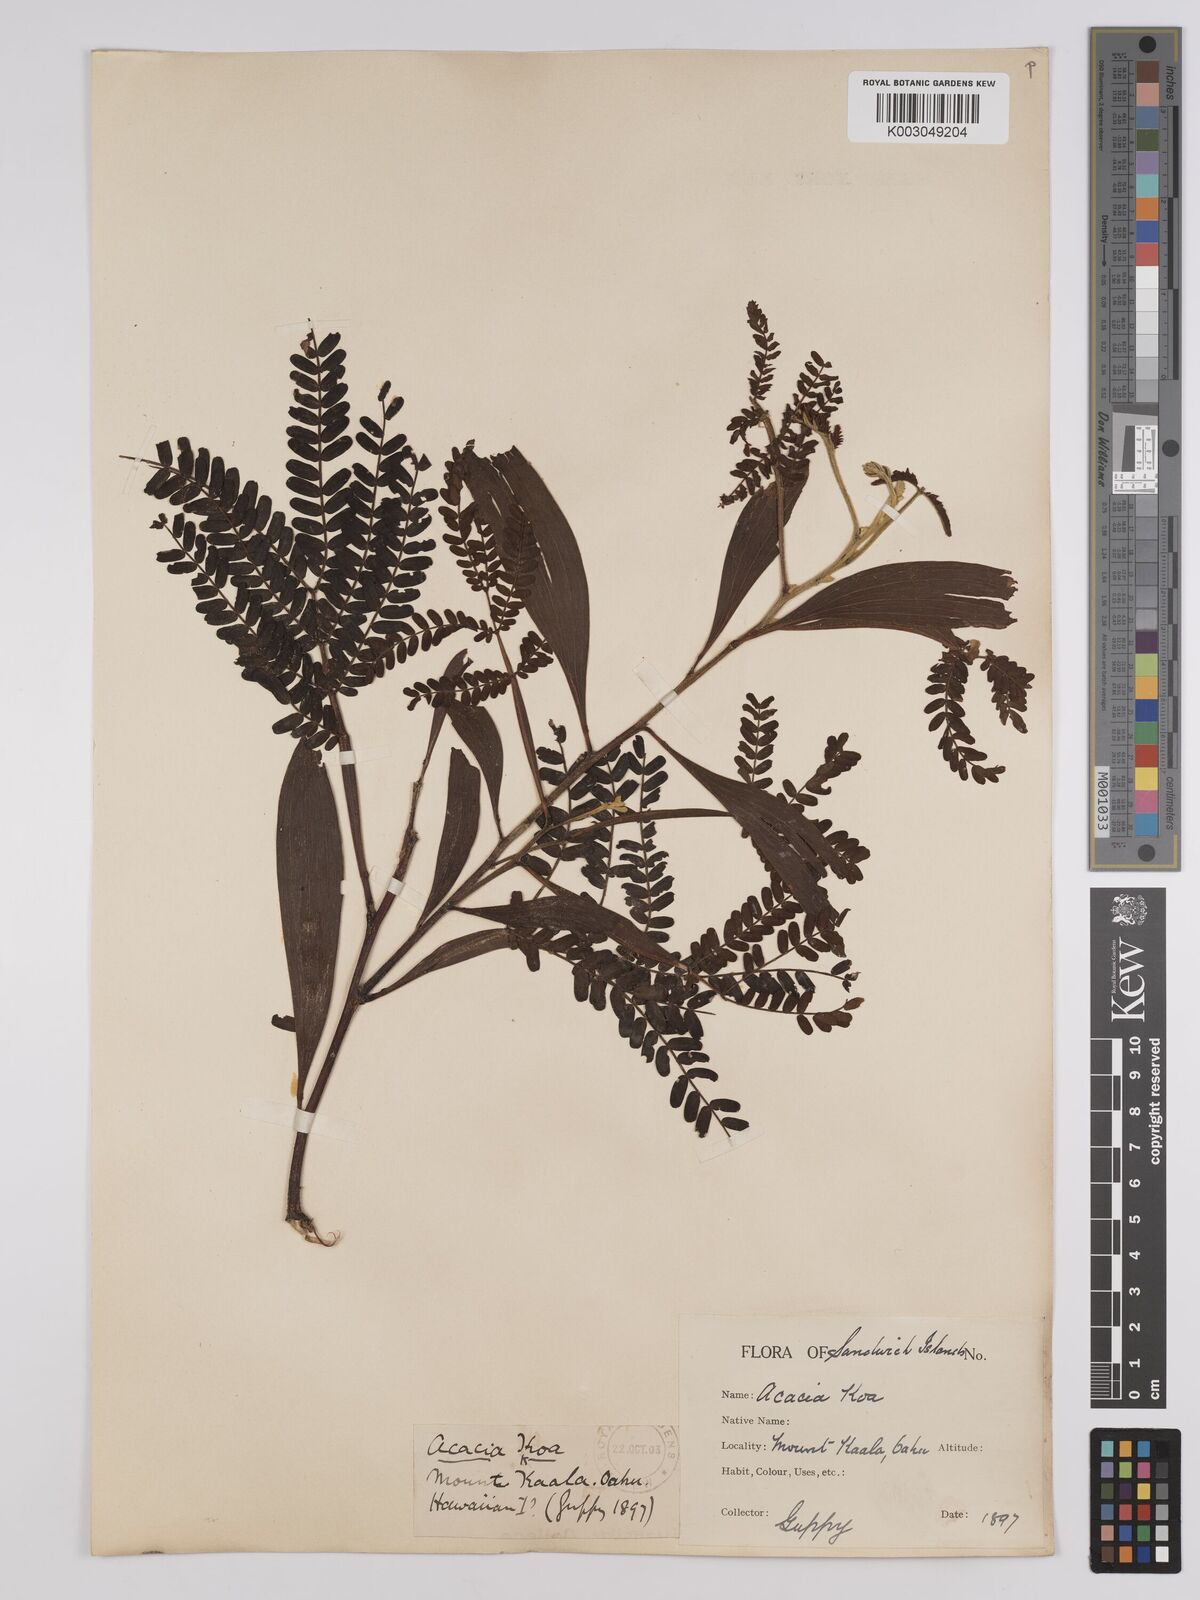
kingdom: Plantae
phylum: Tracheophyta
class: Magnoliopsida
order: Fabales
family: Fabaceae
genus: Acacia
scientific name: Acacia koa
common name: Gray koa
